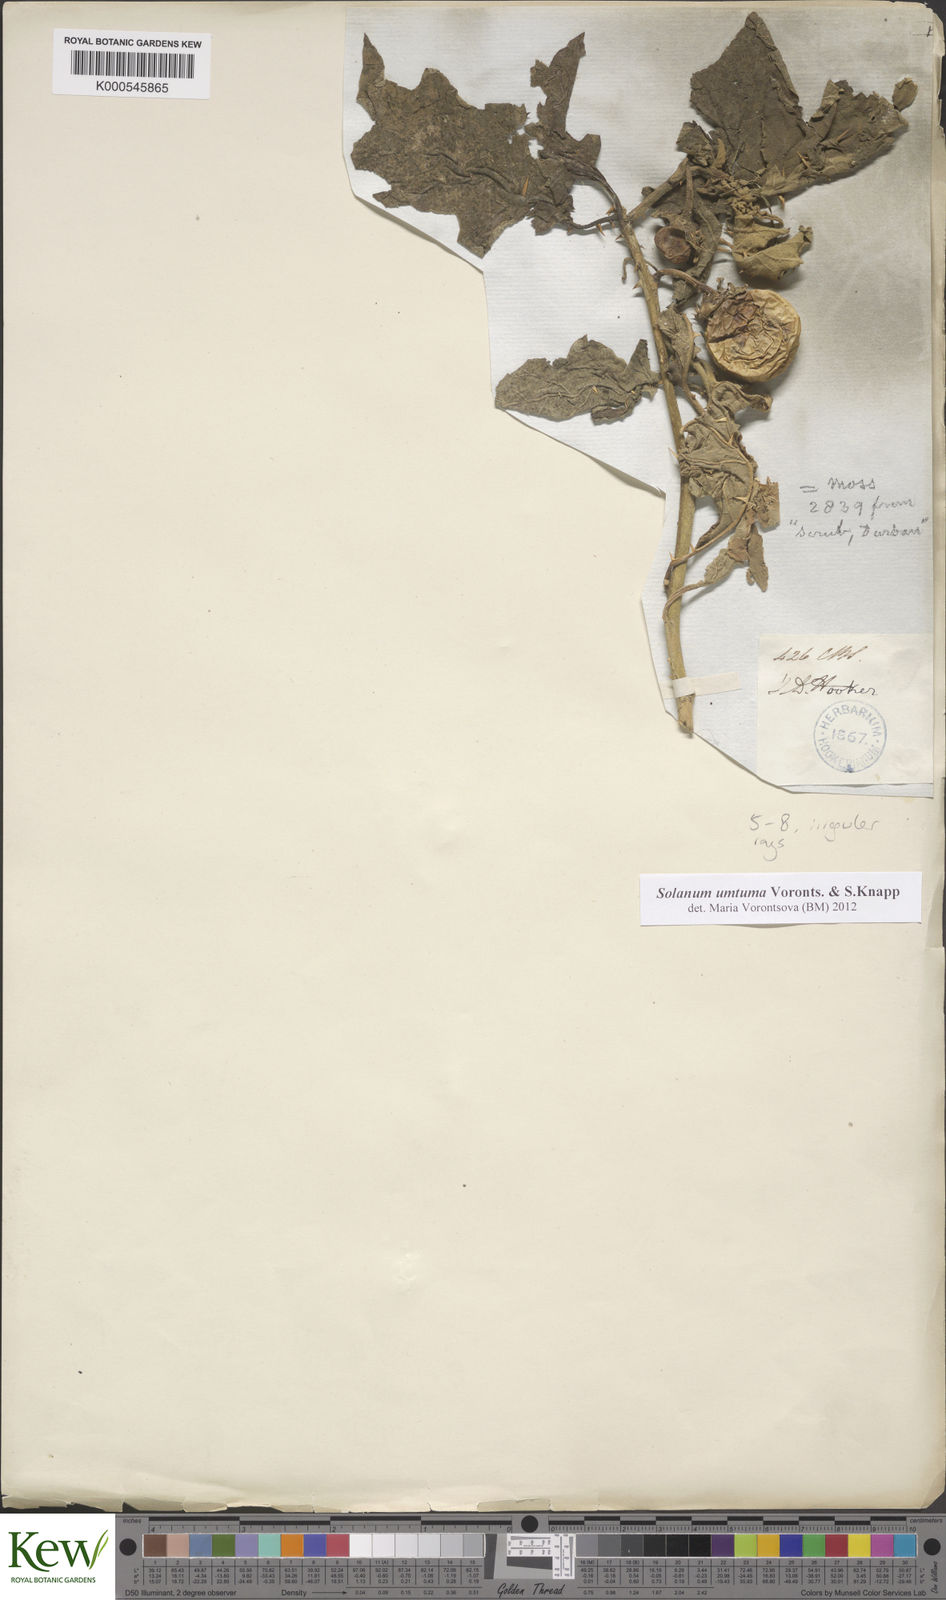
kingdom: Plantae
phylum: Tracheophyta
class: Magnoliopsida
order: Solanales
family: Solanaceae
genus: Solanum
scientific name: Solanum umtuma
